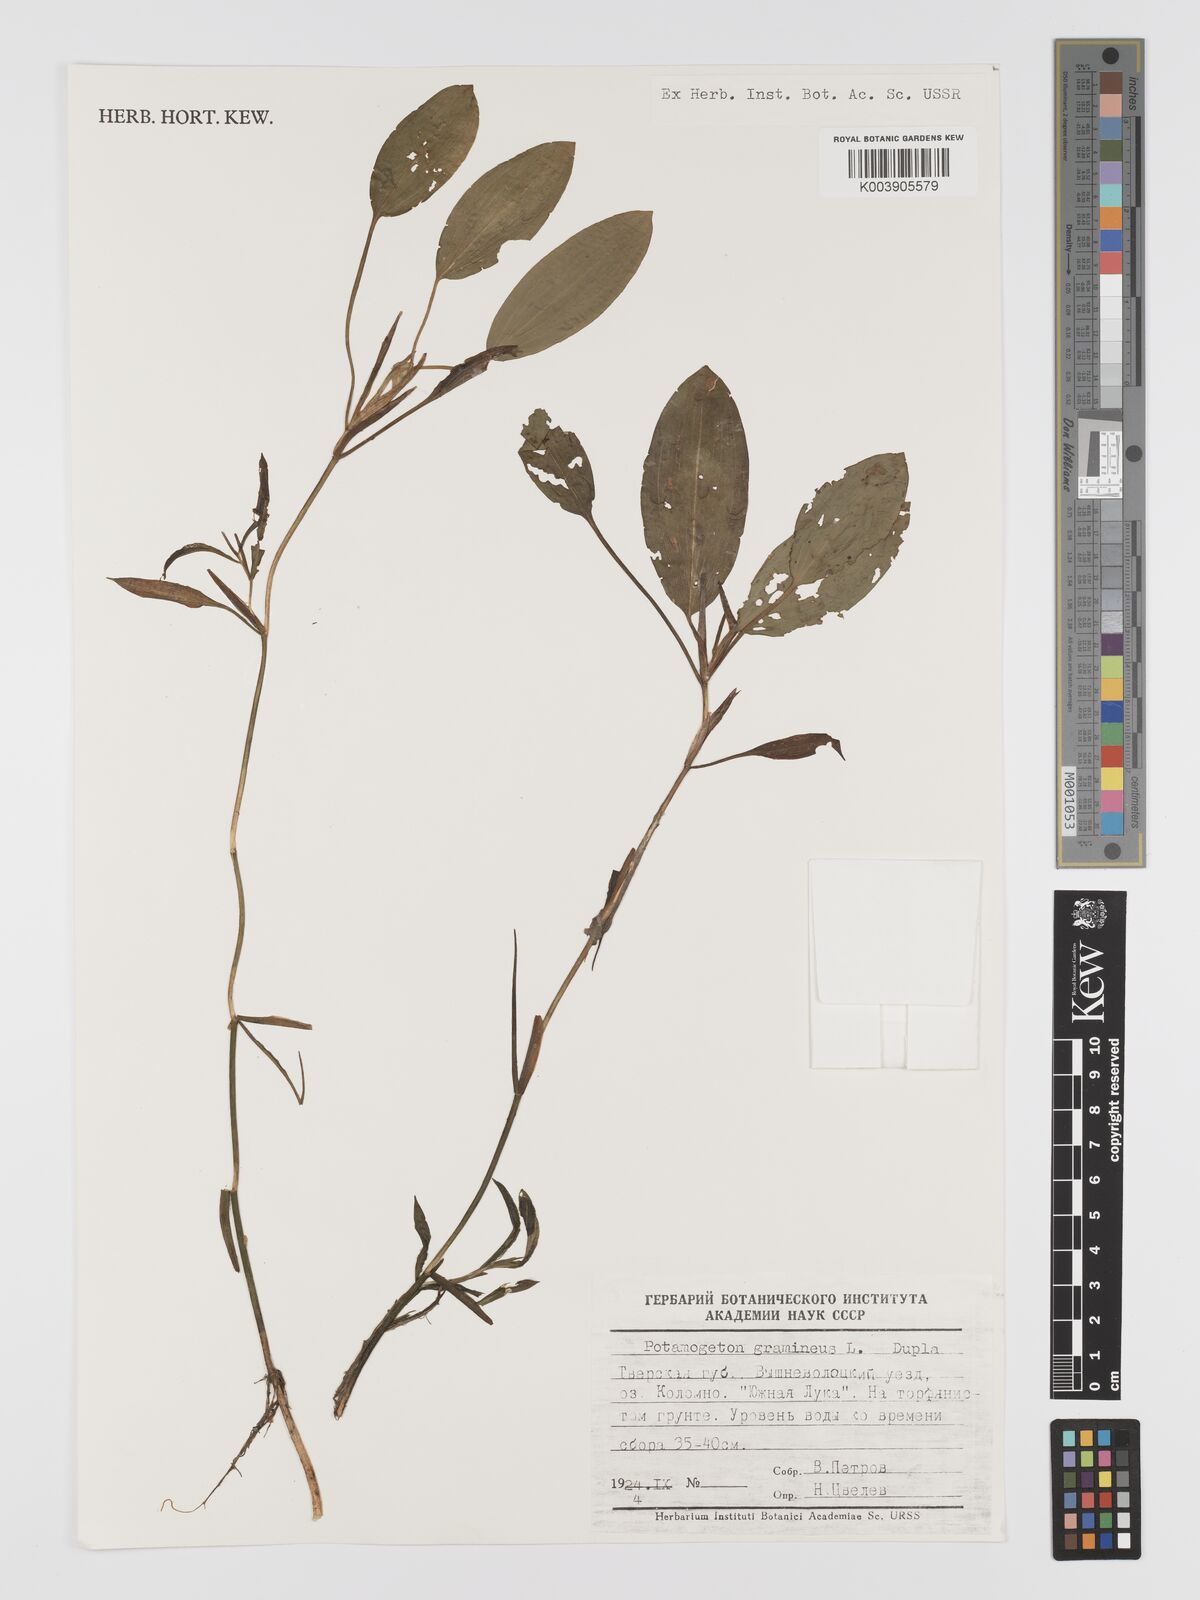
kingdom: Plantae
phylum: Tracheophyta
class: Liliopsida
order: Alismatales
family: Potamogetonaceae
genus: Potamogeton
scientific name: Potamogeton gramineus
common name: Various-leaved pondweed
